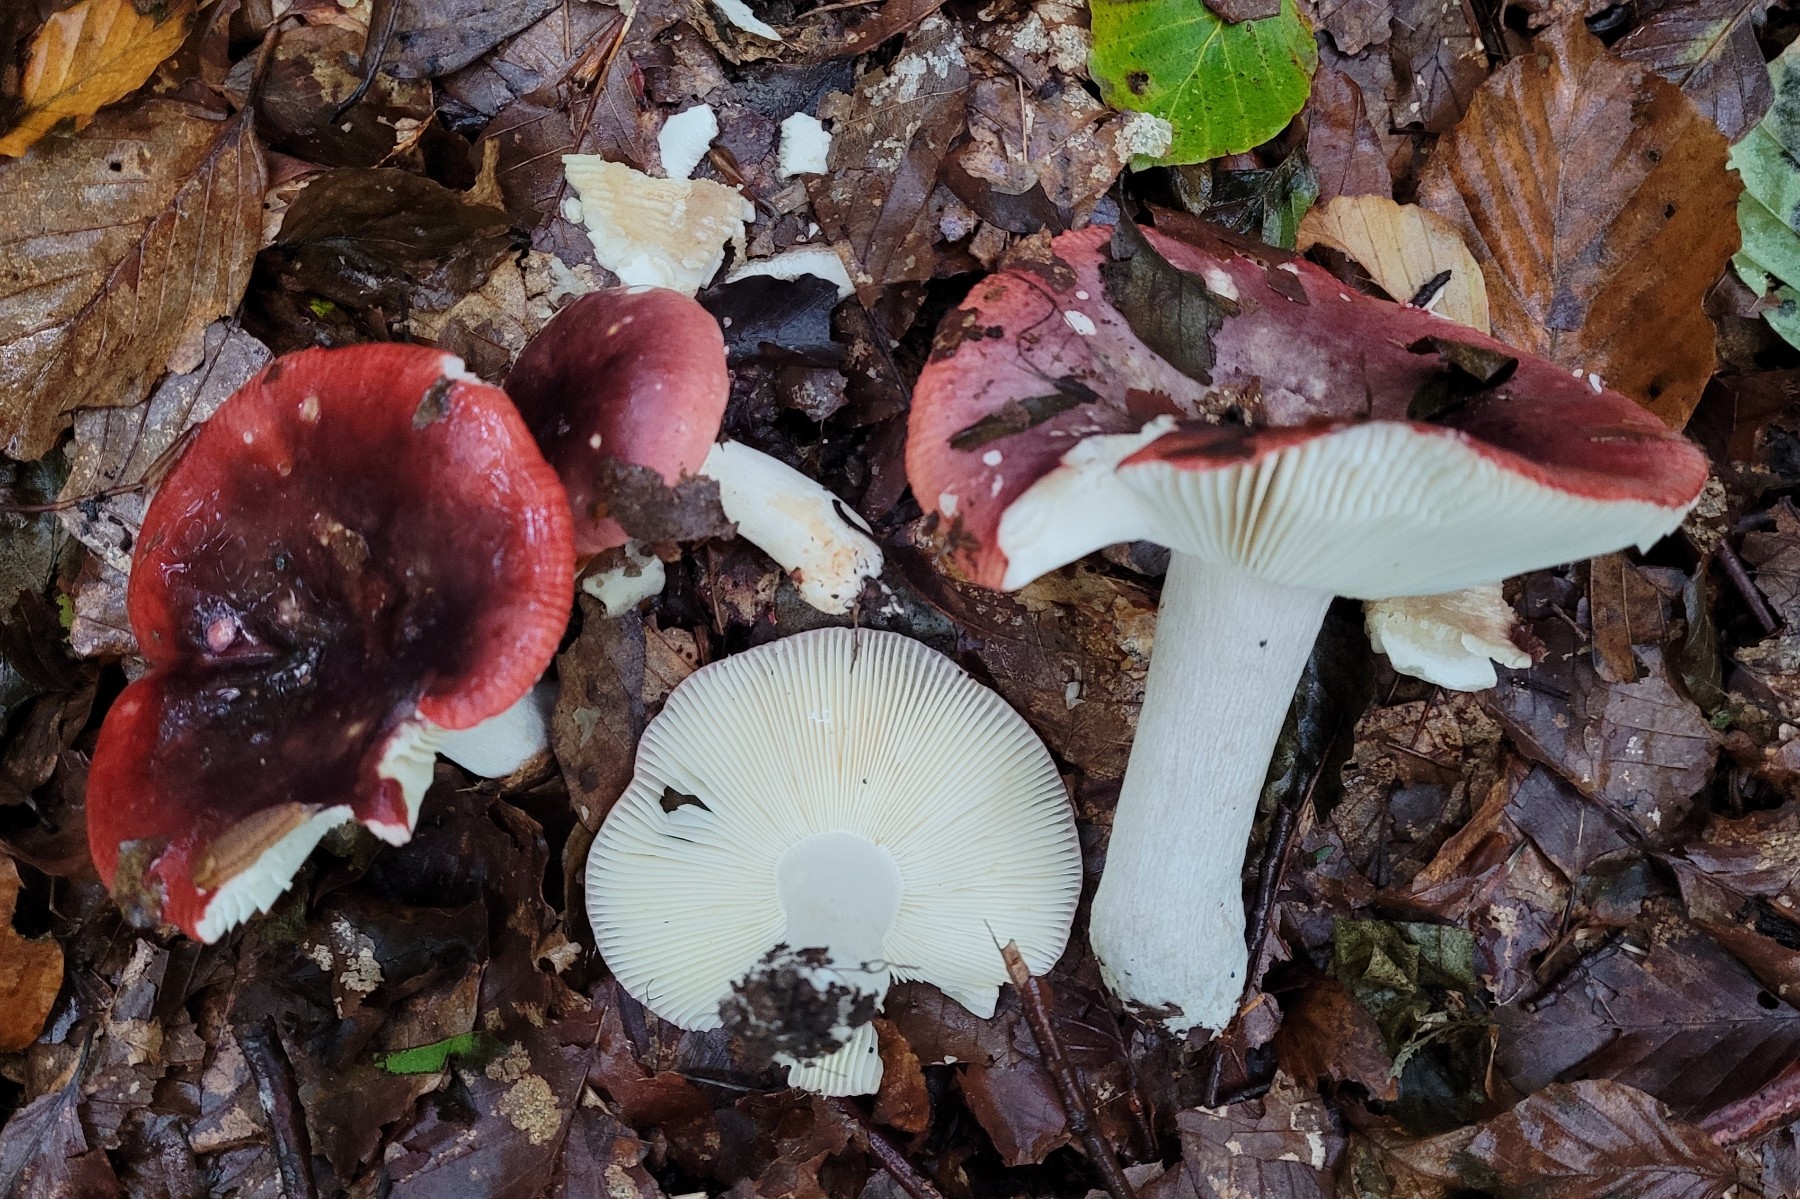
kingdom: Fungi
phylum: Basidiomycota
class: Agaricomycetes
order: Russulales
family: Russulaceae
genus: Russula
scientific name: Russula atropurpurea
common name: purpurbroget skørhat
